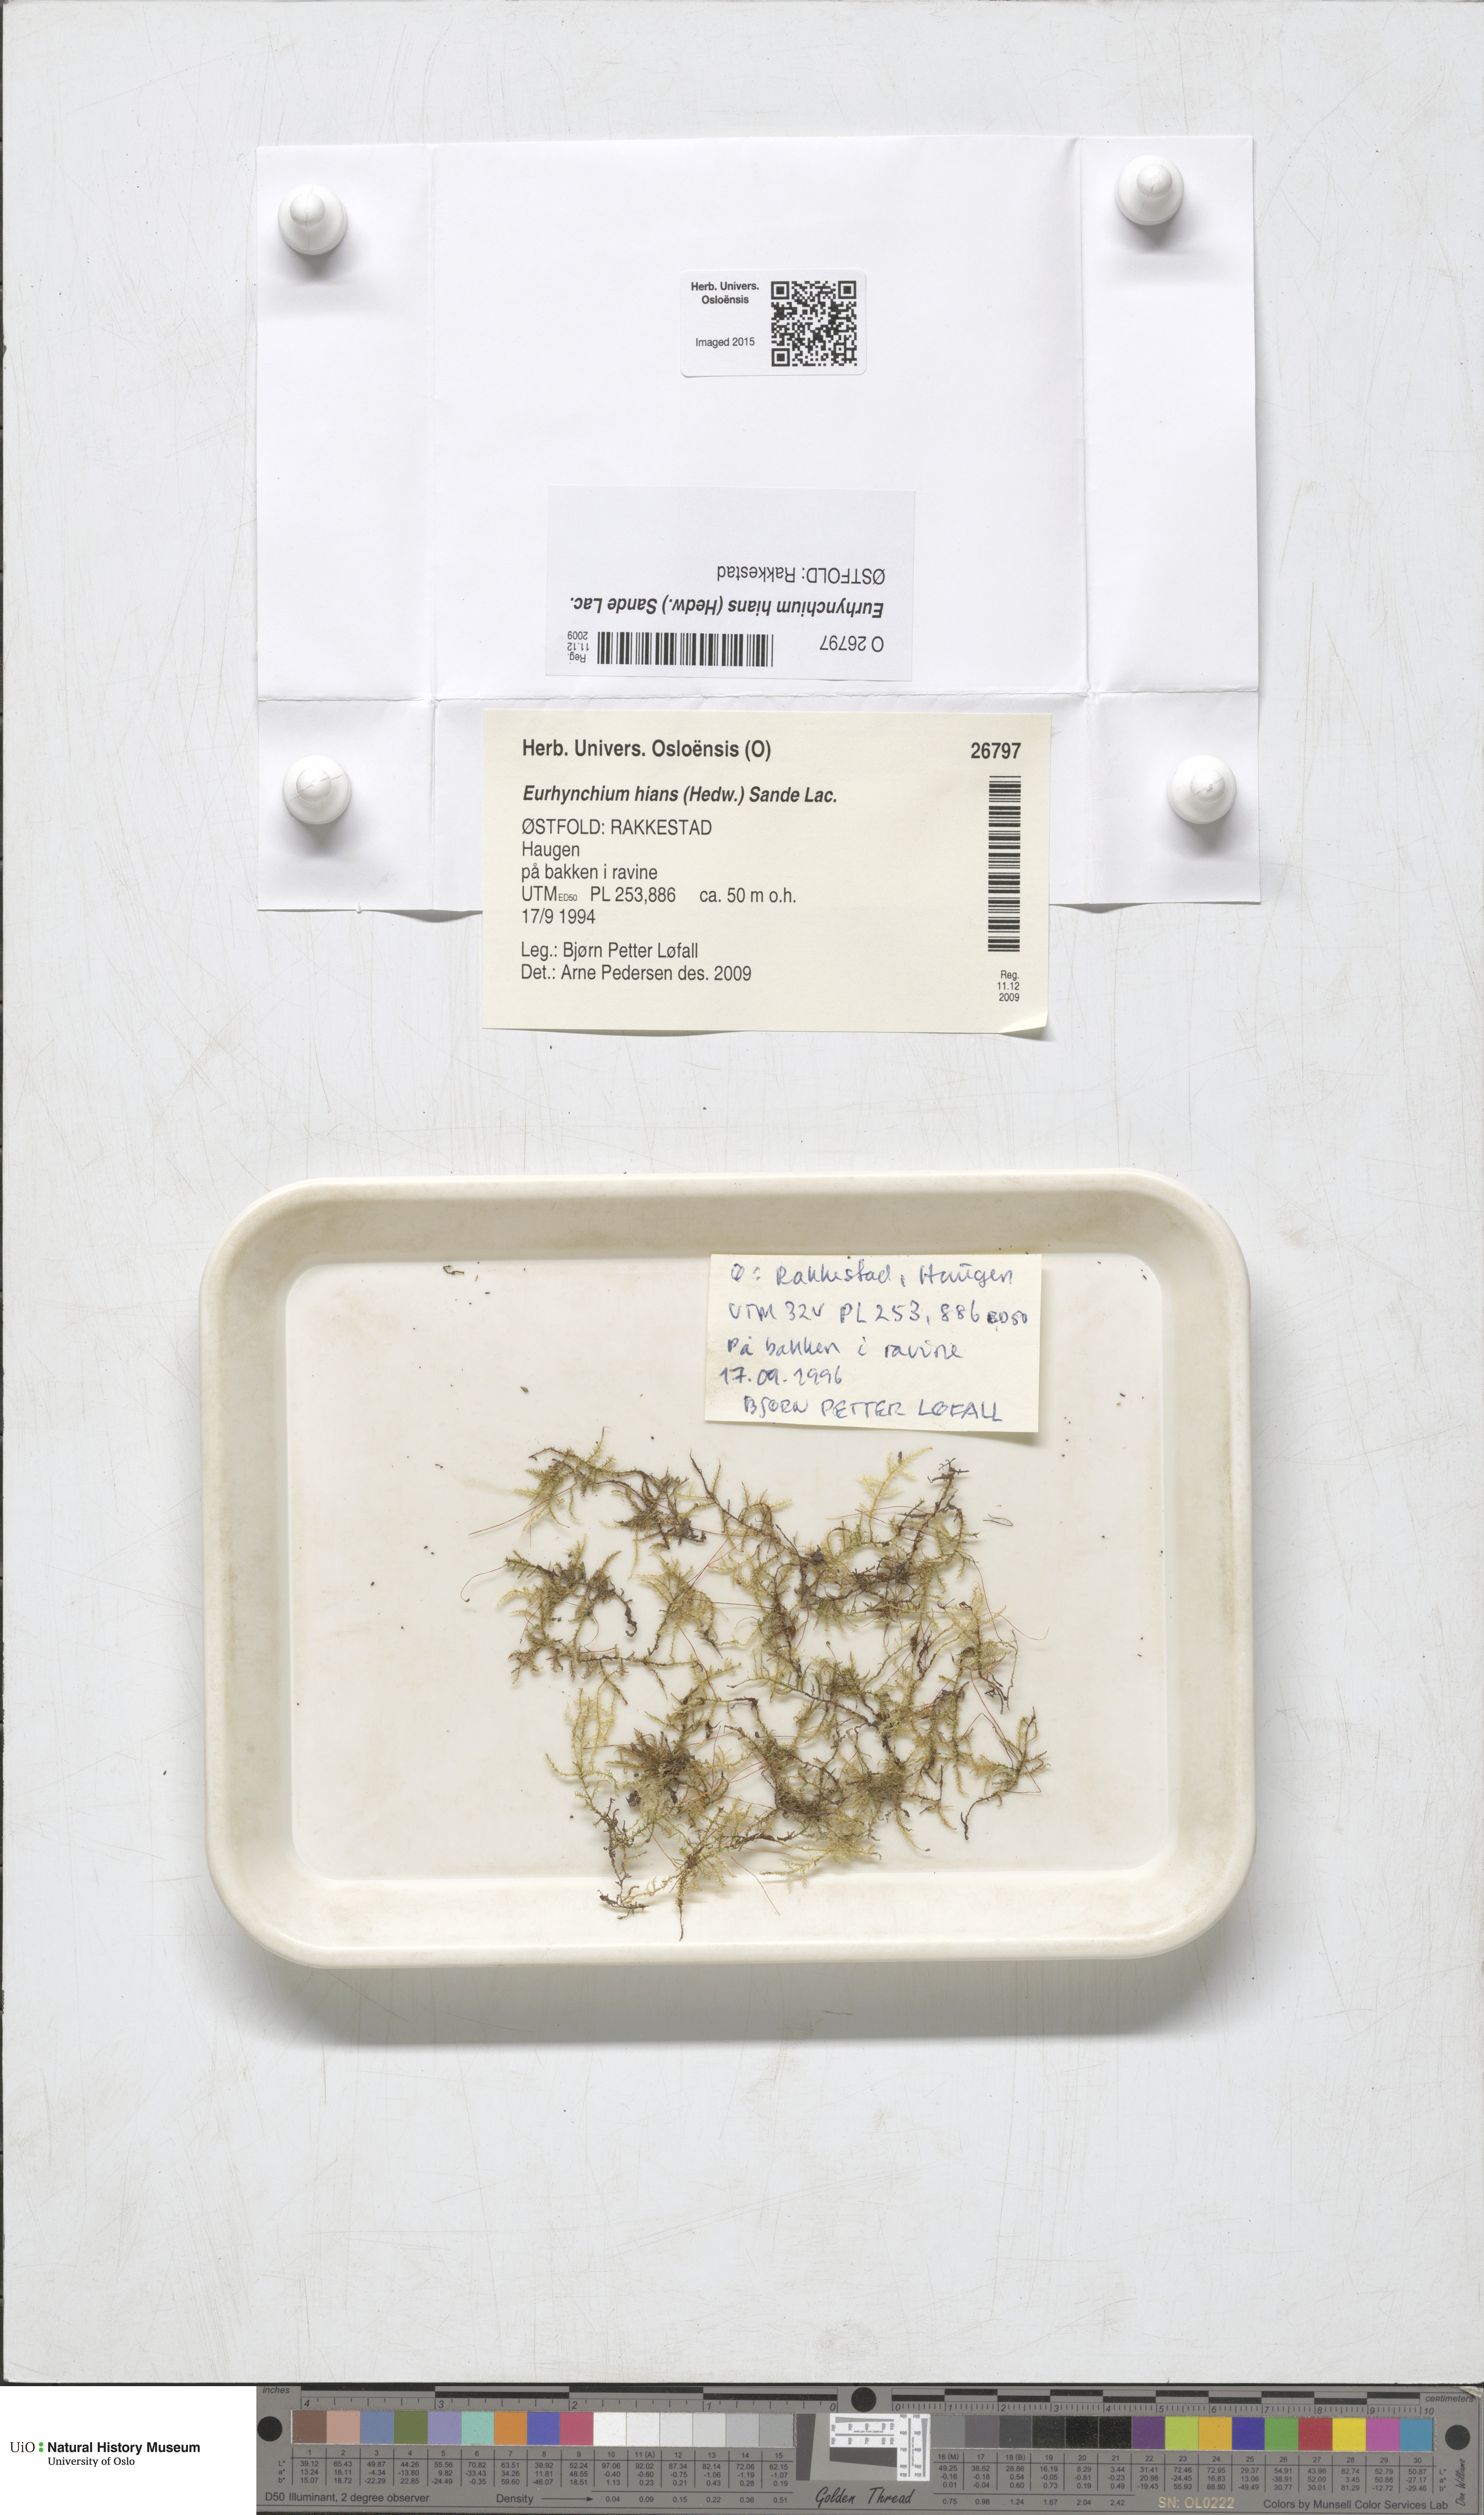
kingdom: Plantae
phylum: Bryophyta
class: Bryopsida
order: Hypnales
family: Brachytheciaceae
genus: Oxyrrhynchium
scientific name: Oxyrrhynchium hians
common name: Spreading beaked moss
